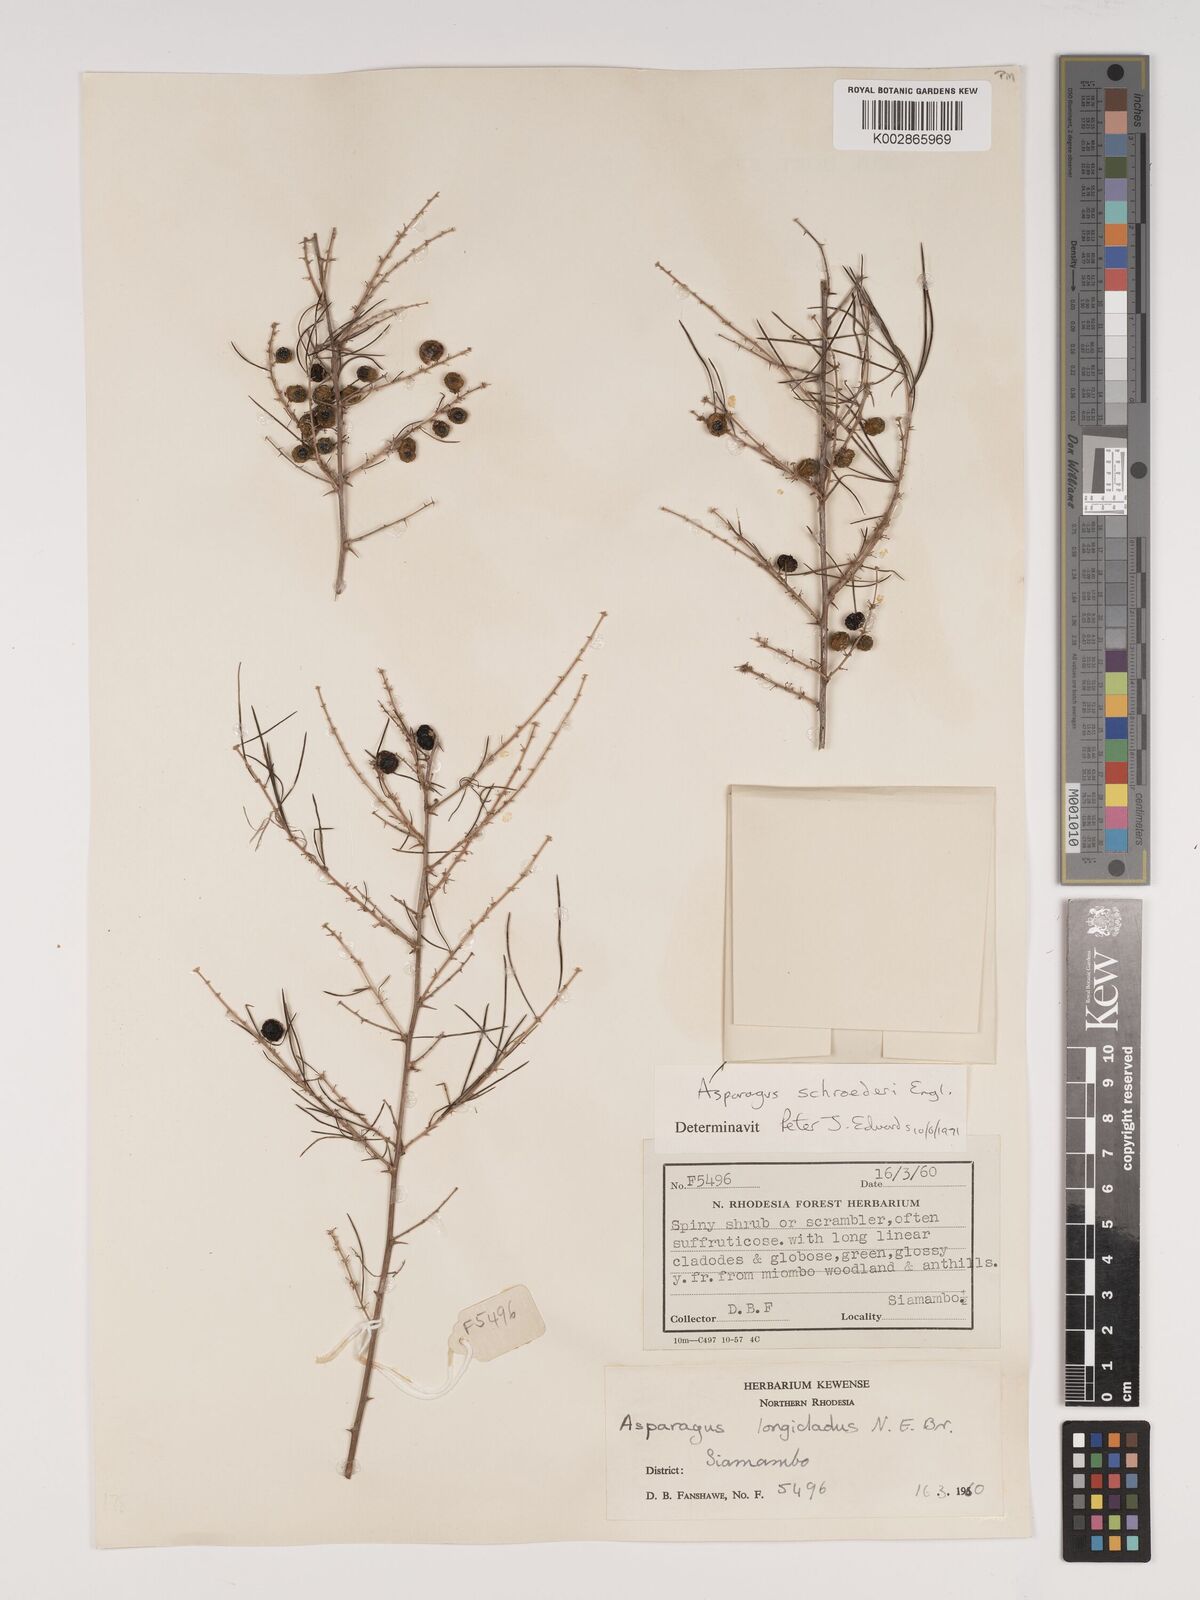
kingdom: Plantae
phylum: Tracheophyta
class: Liliopsida
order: Asparagales
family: Asparagaceae
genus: Asparagus
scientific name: Asparagus schroederi
